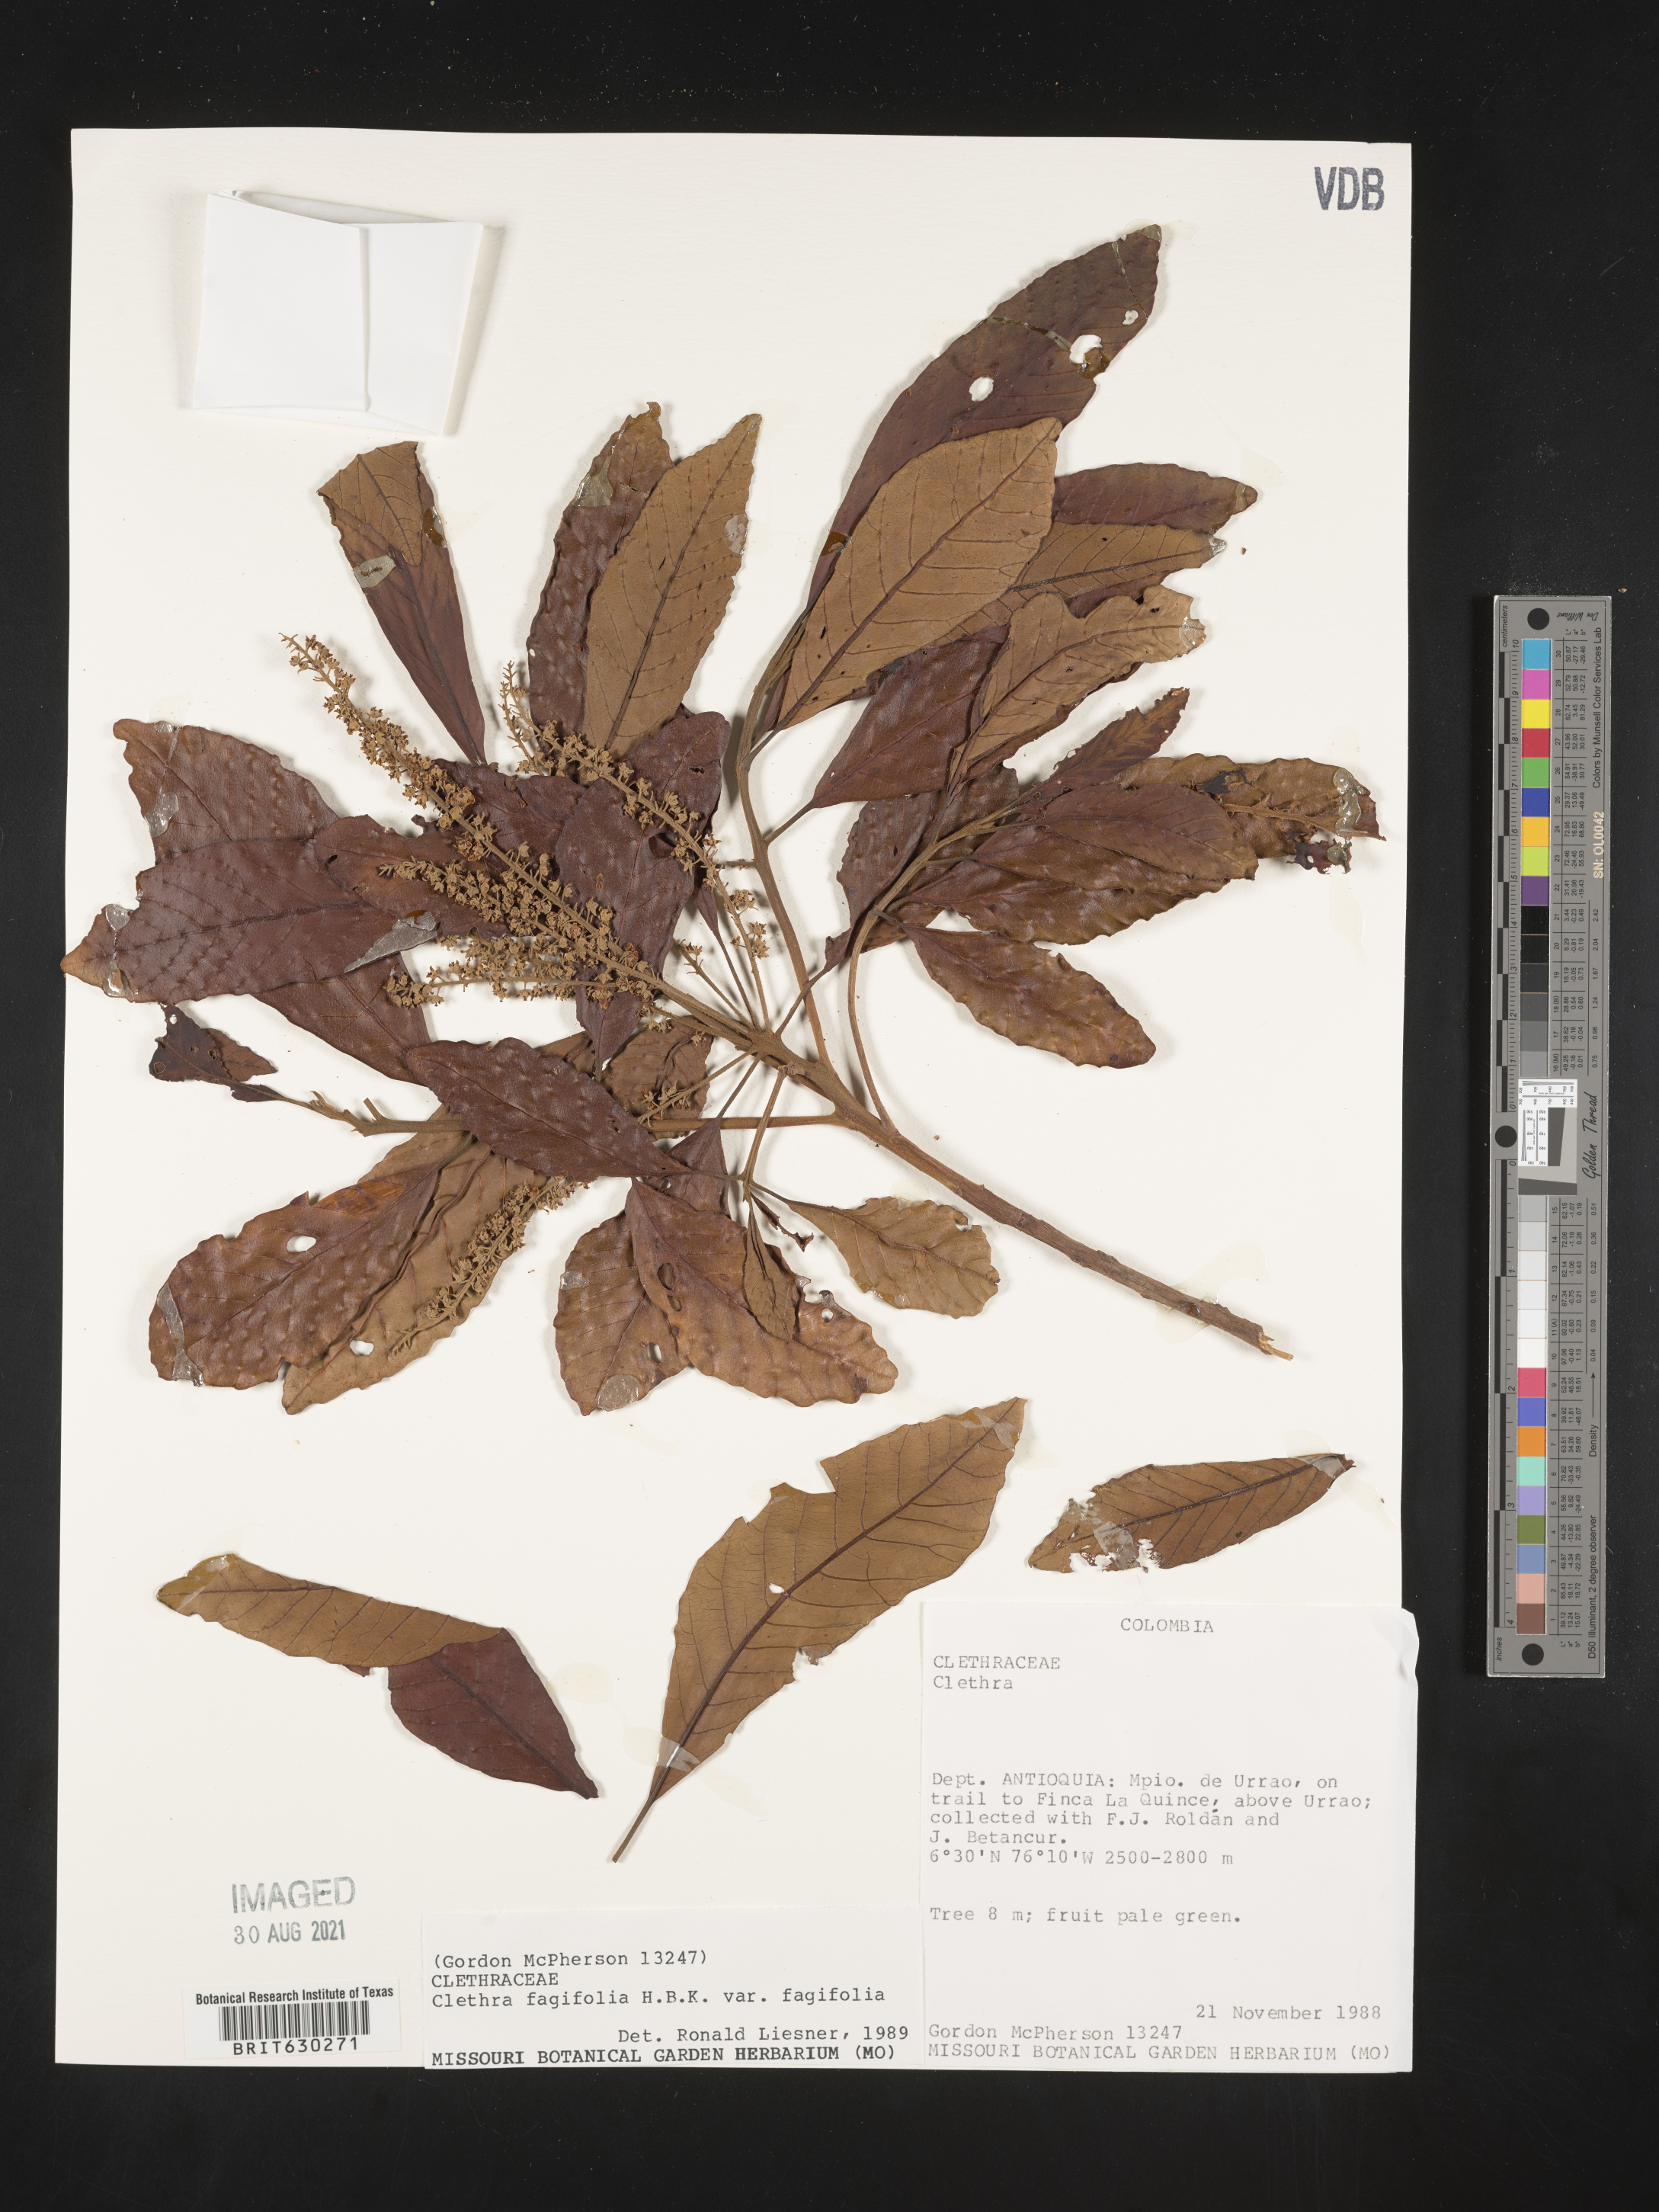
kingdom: Plantae
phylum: Tracheophyta
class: Magnoliopsida
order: Ericales
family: Clethraceae
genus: Clethra
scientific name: Clethra fagifolia
